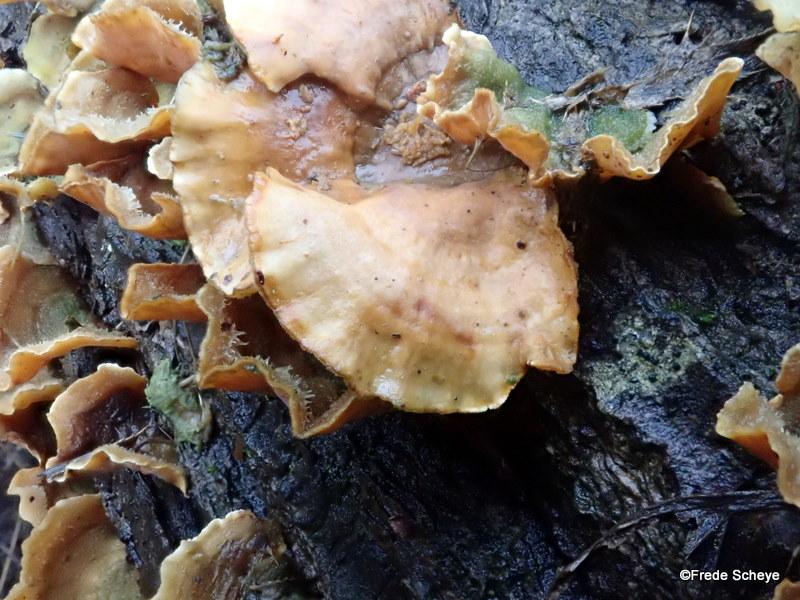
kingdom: Fungi
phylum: Basidiomycota
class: Agaricomycetes
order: Russulales
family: Stereaceae
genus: Stereum
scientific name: Stereum hirsutum
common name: håret lædersvamp
